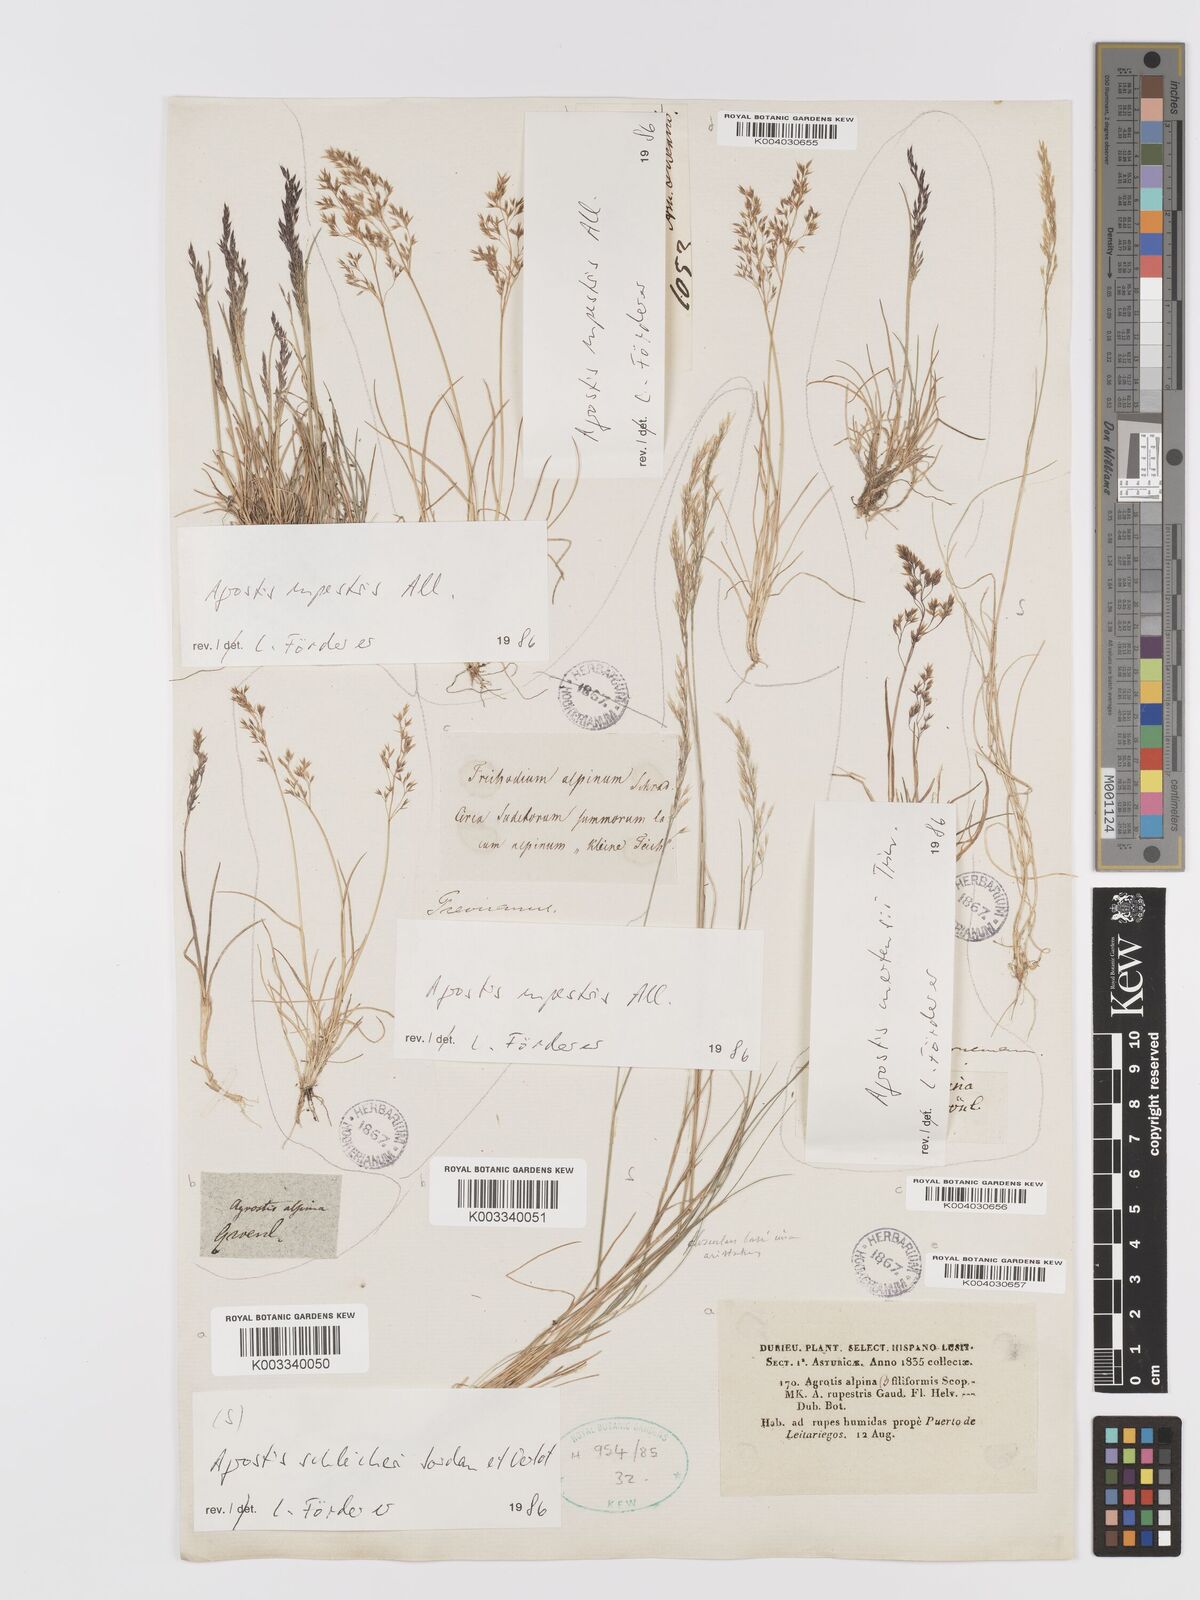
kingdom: Plantae
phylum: Tracheophyta
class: Liliopsida
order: Poales
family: Poaceae
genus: Alpagrostis
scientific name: Alpagrostis schleicheri
